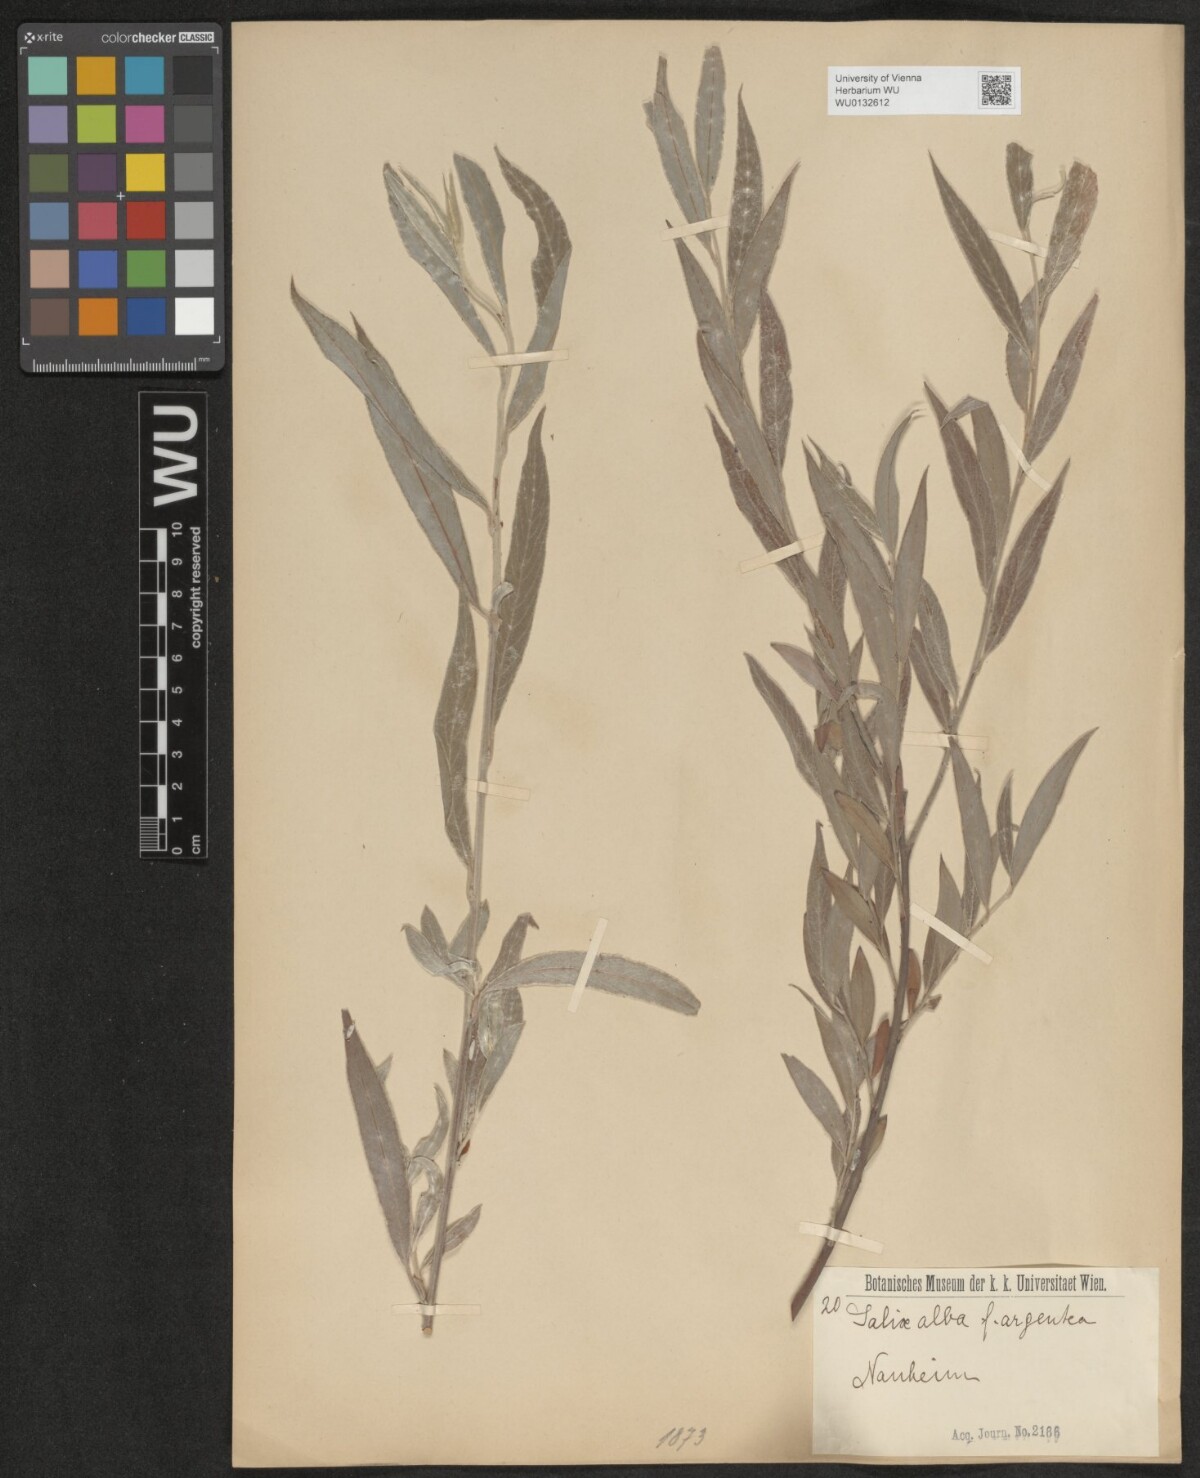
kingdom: Plantae
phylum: Tracheophyta
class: Magnoliopsida
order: Malpighiales
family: Salicaceae
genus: Salix
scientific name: Salix alba
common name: White willow
